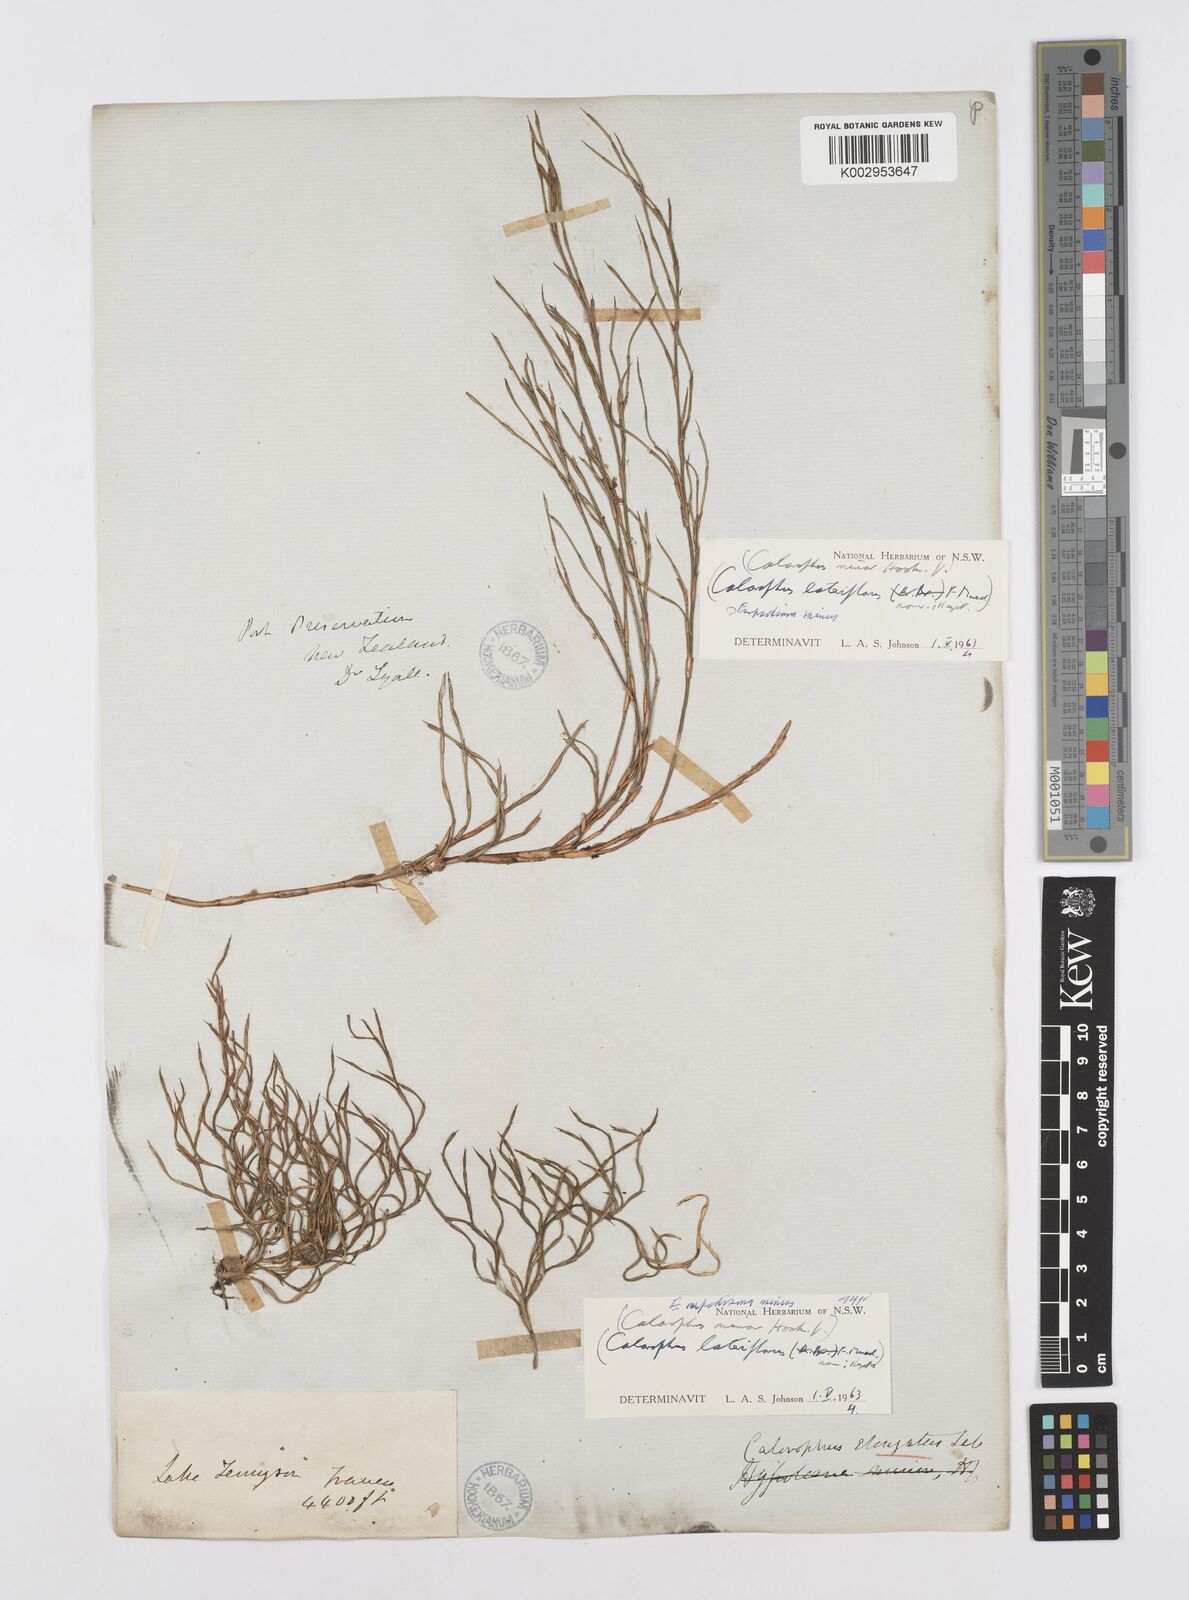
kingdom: Plantae
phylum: Tracheophyta
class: Liliopsida
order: Poales
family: Restionaceae
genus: Empodisma
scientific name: Empodisma minus
